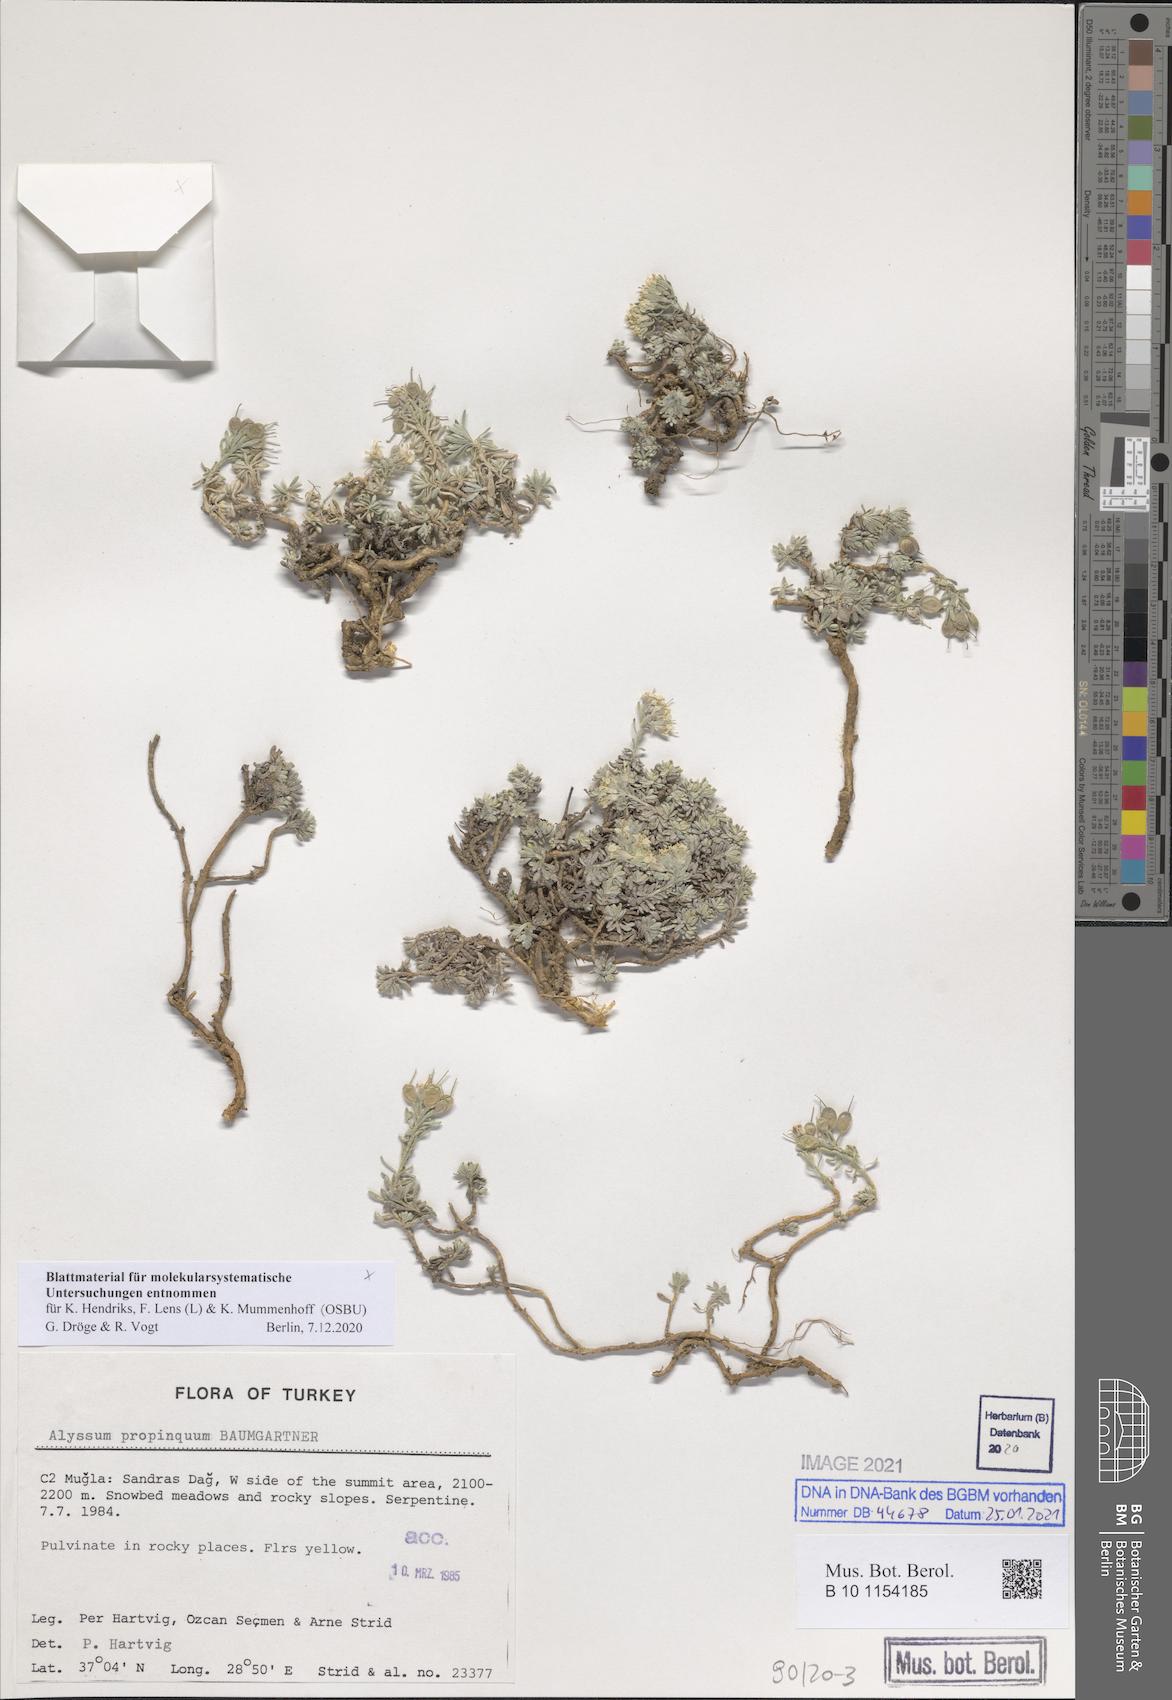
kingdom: Plantae
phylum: Tracheophyta
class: Magnoliopsida
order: Brassicales
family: Brassicaceae
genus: Alyssum
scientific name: Alyssum propinquum
